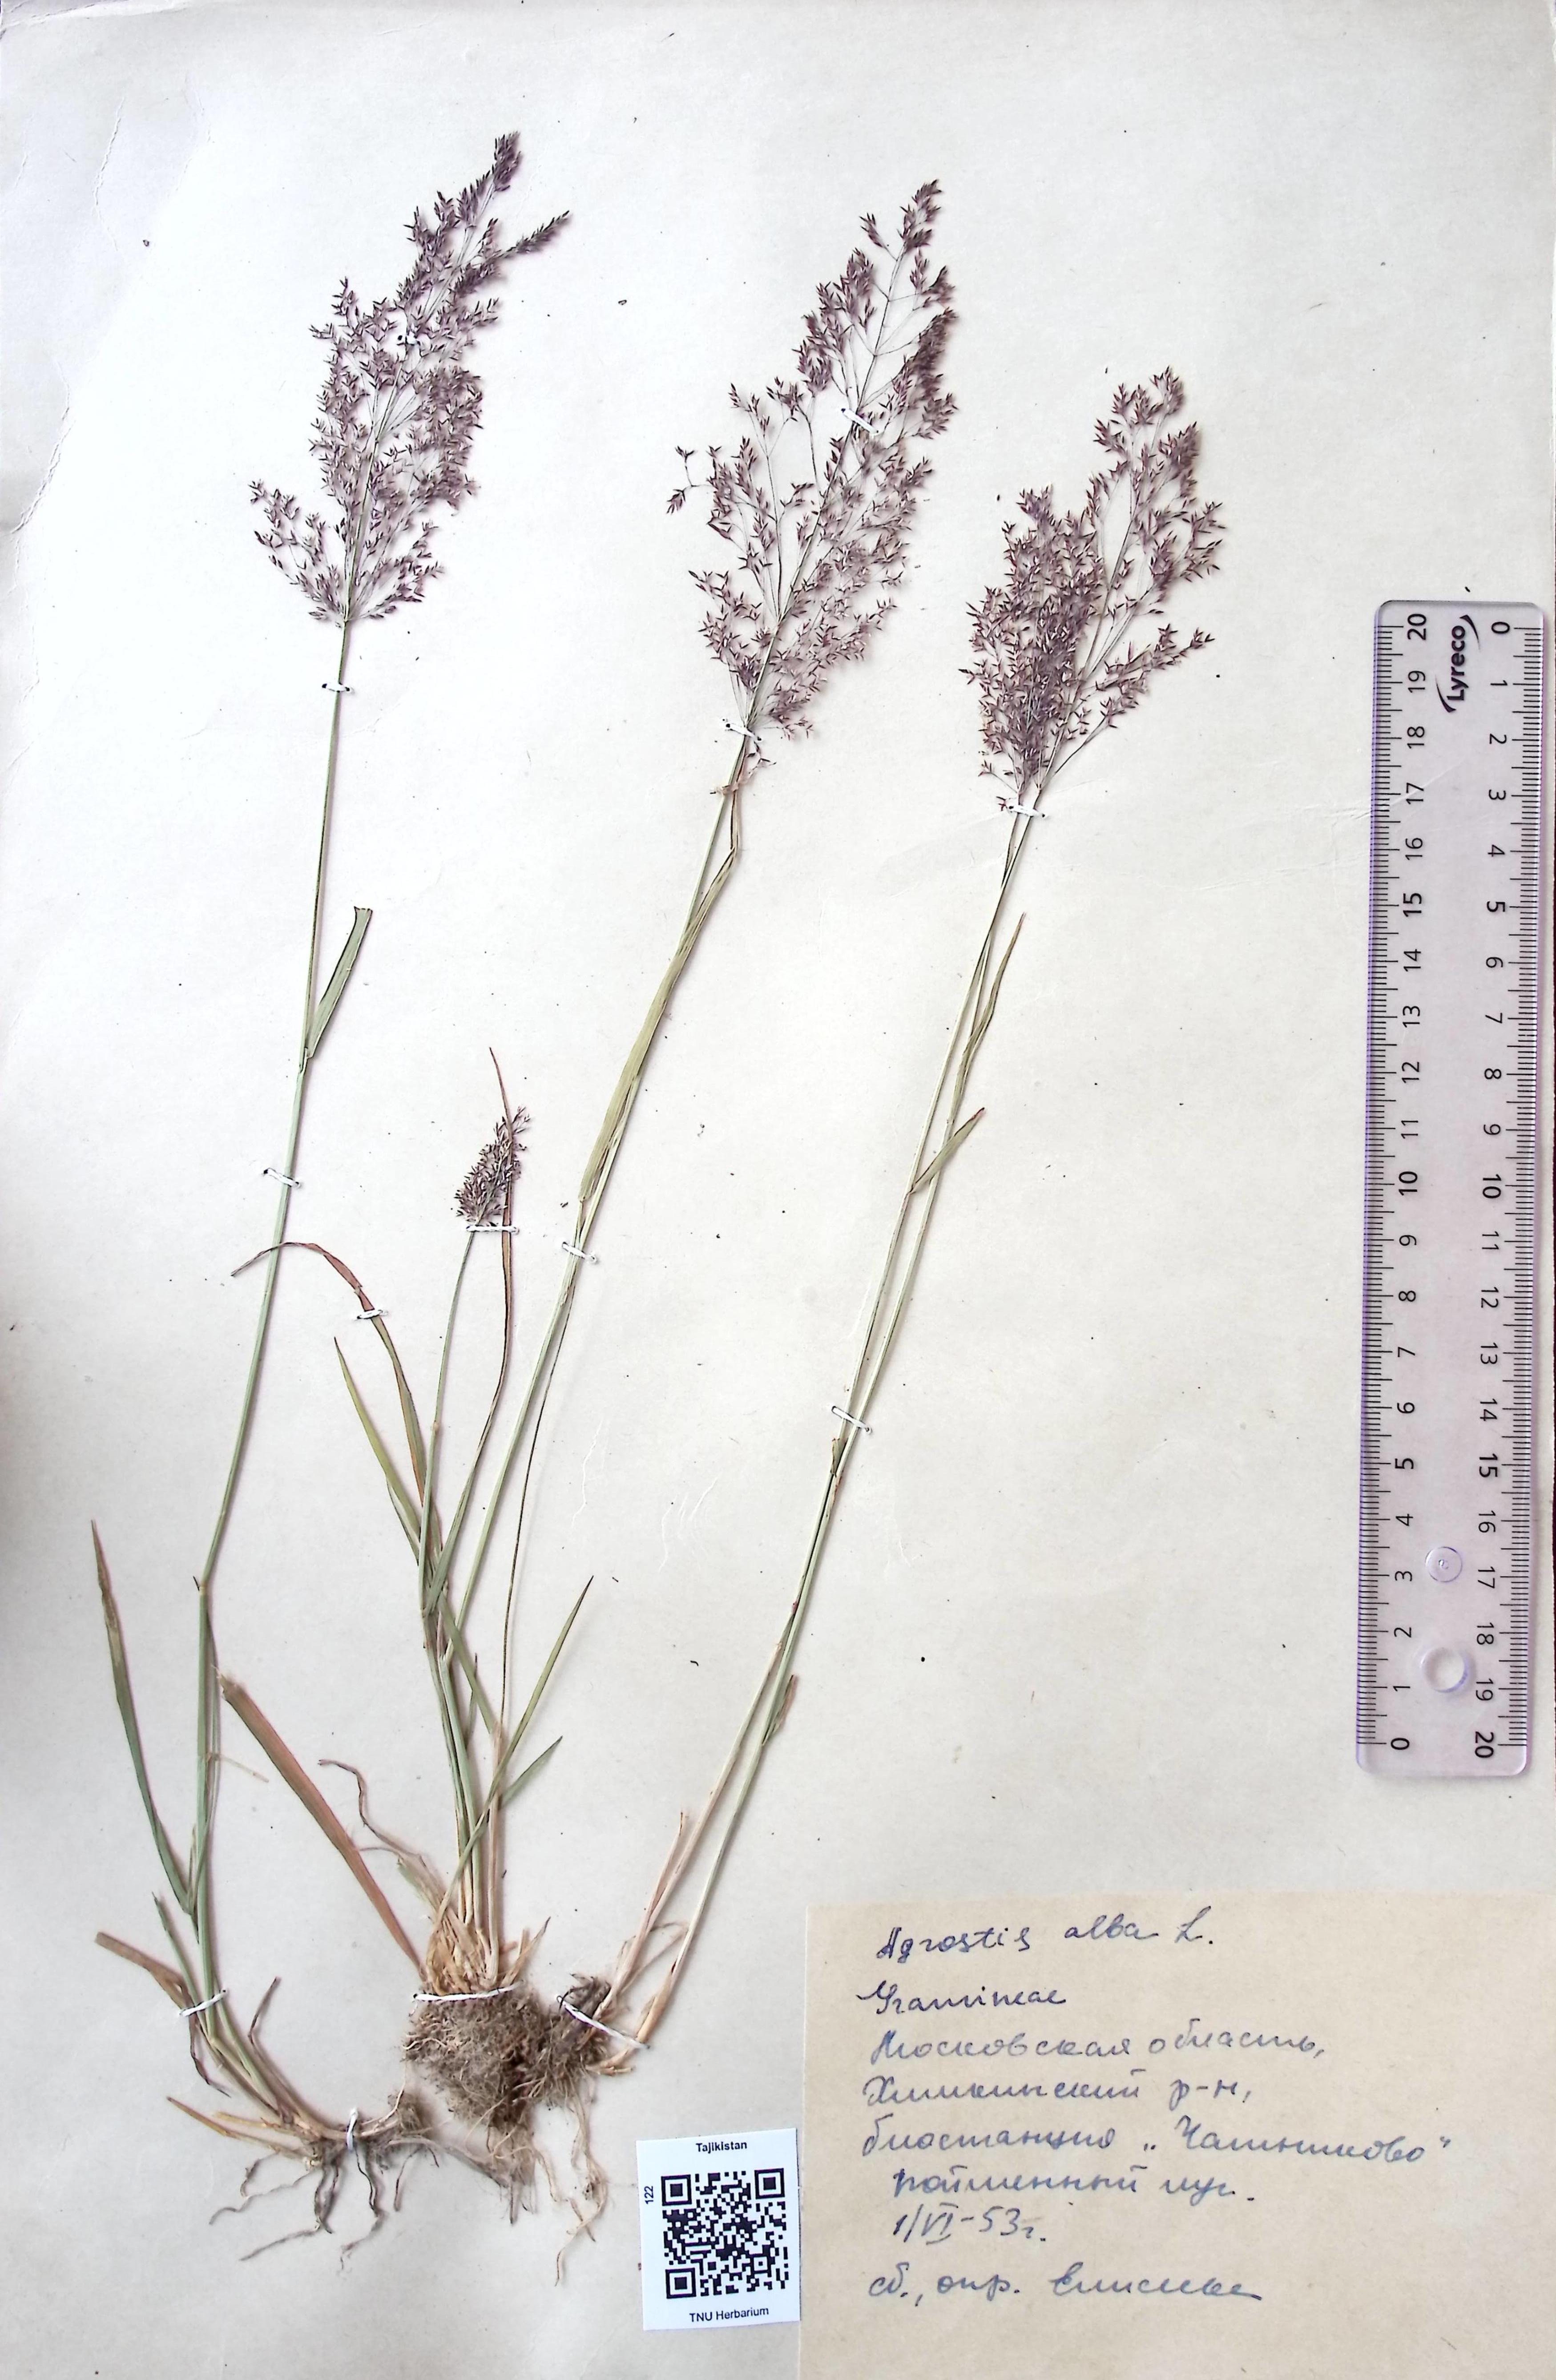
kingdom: Plantae
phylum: Tracheophyta
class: Liliopsida
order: Poales
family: Poaceae
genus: Poa
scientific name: Poa nemoralis
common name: Wood bluegrass
